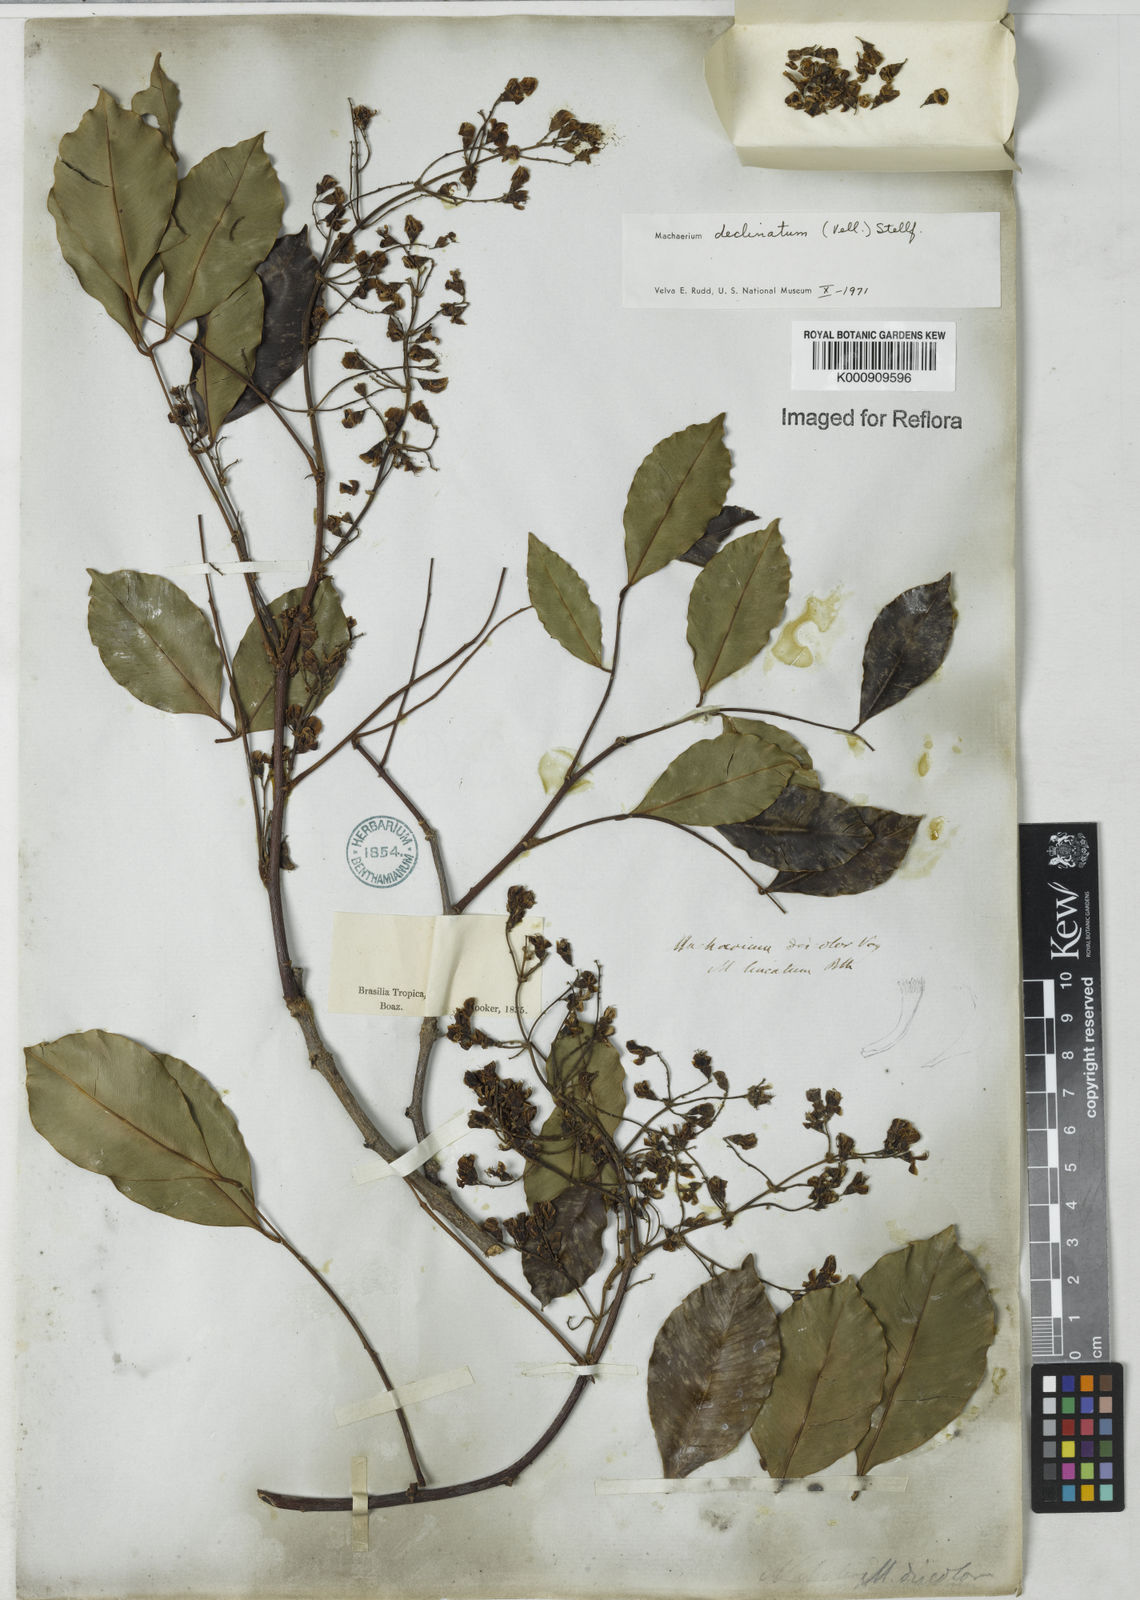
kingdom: Plantae
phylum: Tracheophyta
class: Magnoliopsida
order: Fabales
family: Fabaceae
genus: Machaerium
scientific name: Machaerium declinatum
